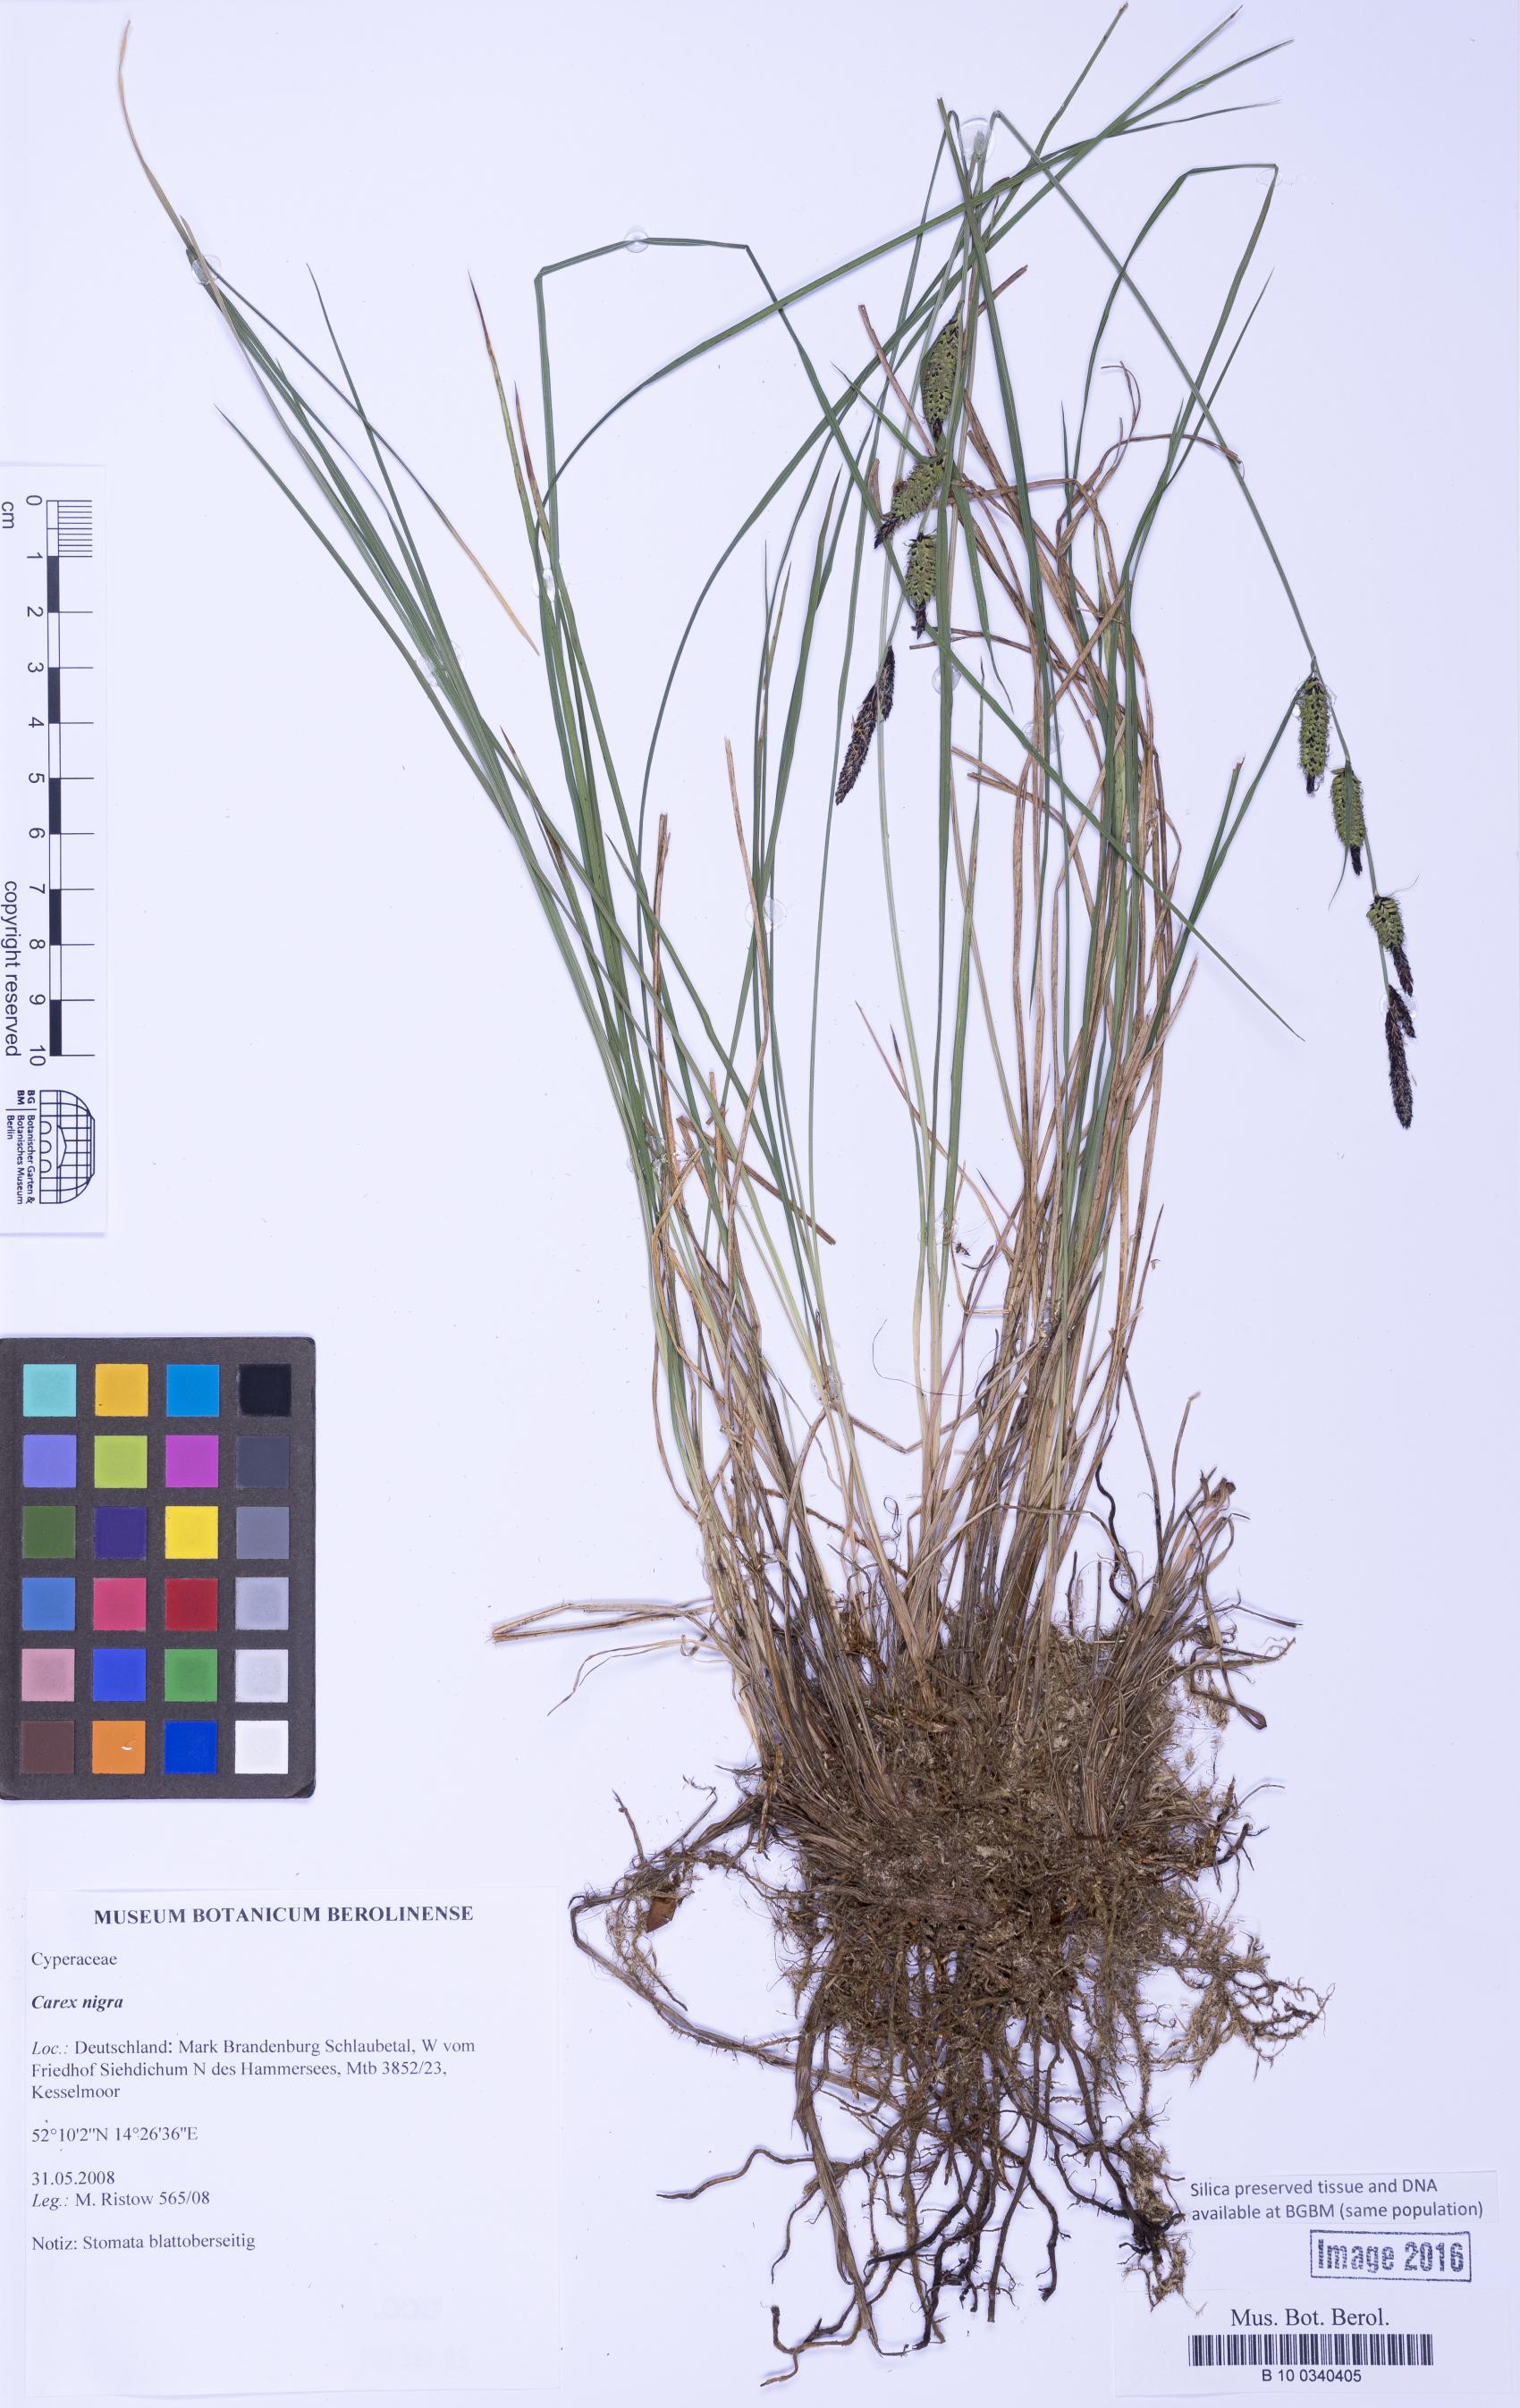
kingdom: Plantae
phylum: Tracheophyta
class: Liliopsida
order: Poales
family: Cyperaceae
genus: Carex
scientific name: Carex nigra
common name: Common sedge
